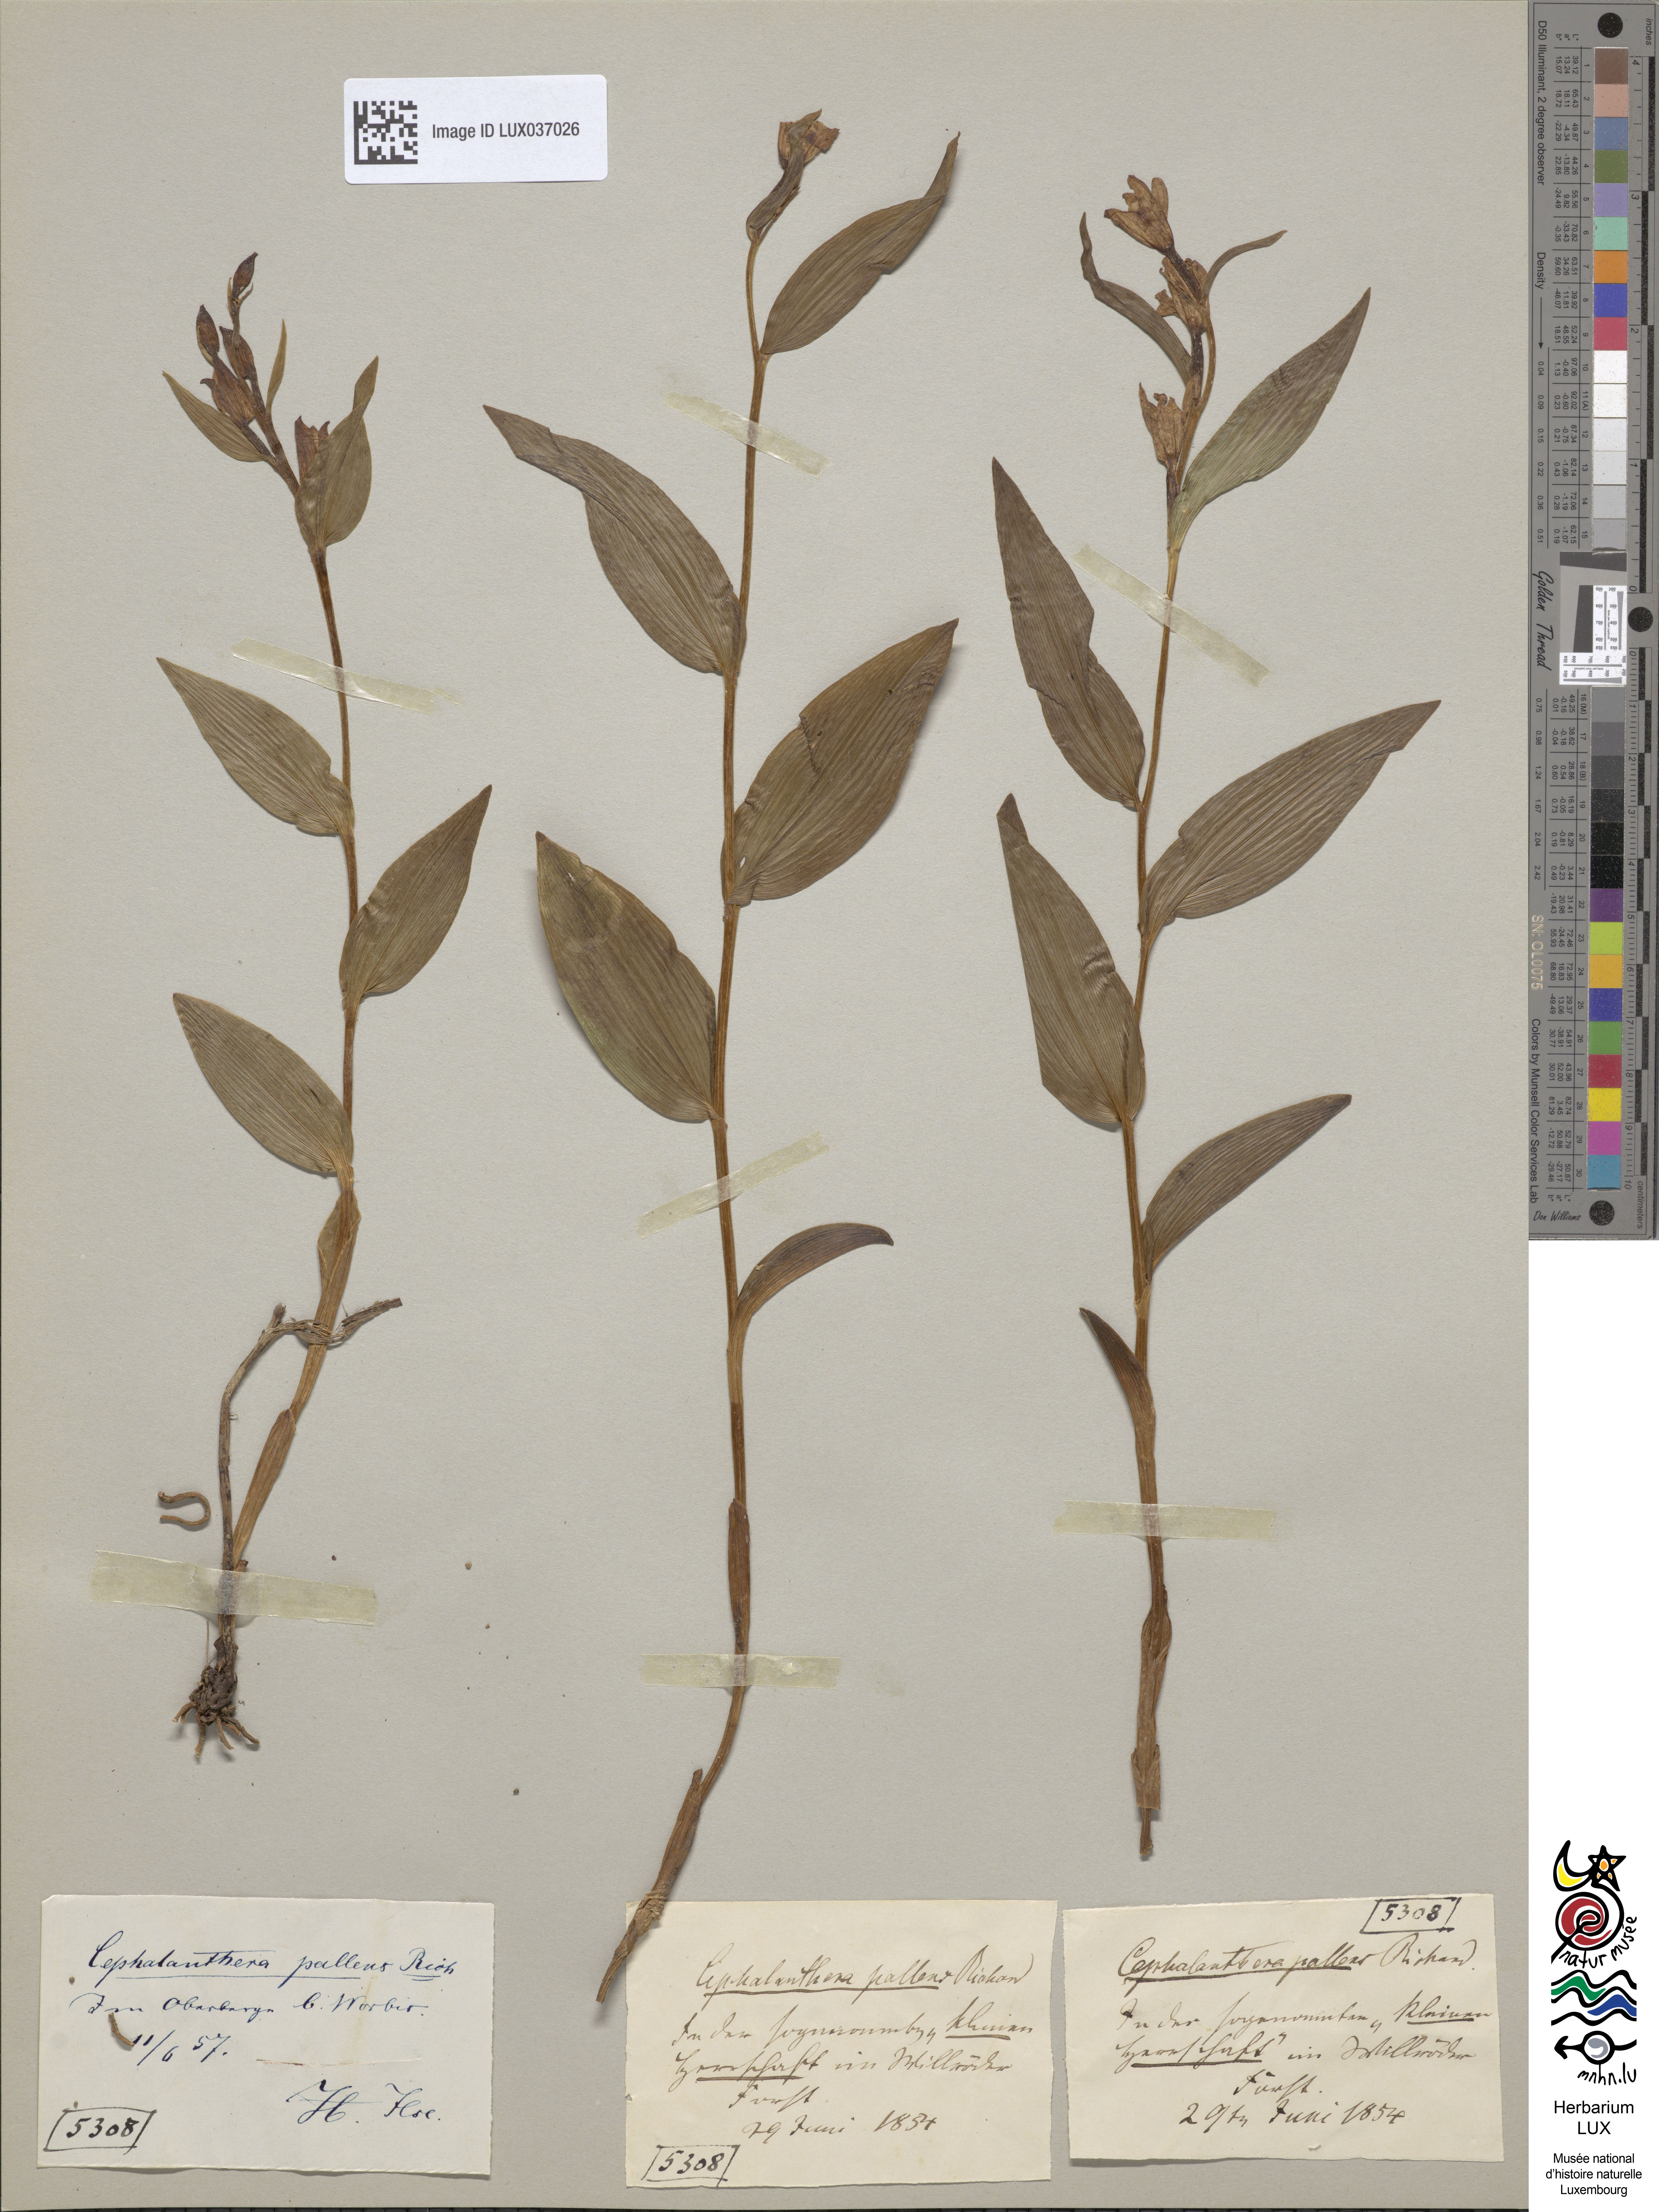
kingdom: Plantae
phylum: Tracheophyta
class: Liliopsida
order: Asparagales
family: Orchidaceae
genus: Cephalanthera
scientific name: Cephalanthera damasonium
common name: White helleborine
